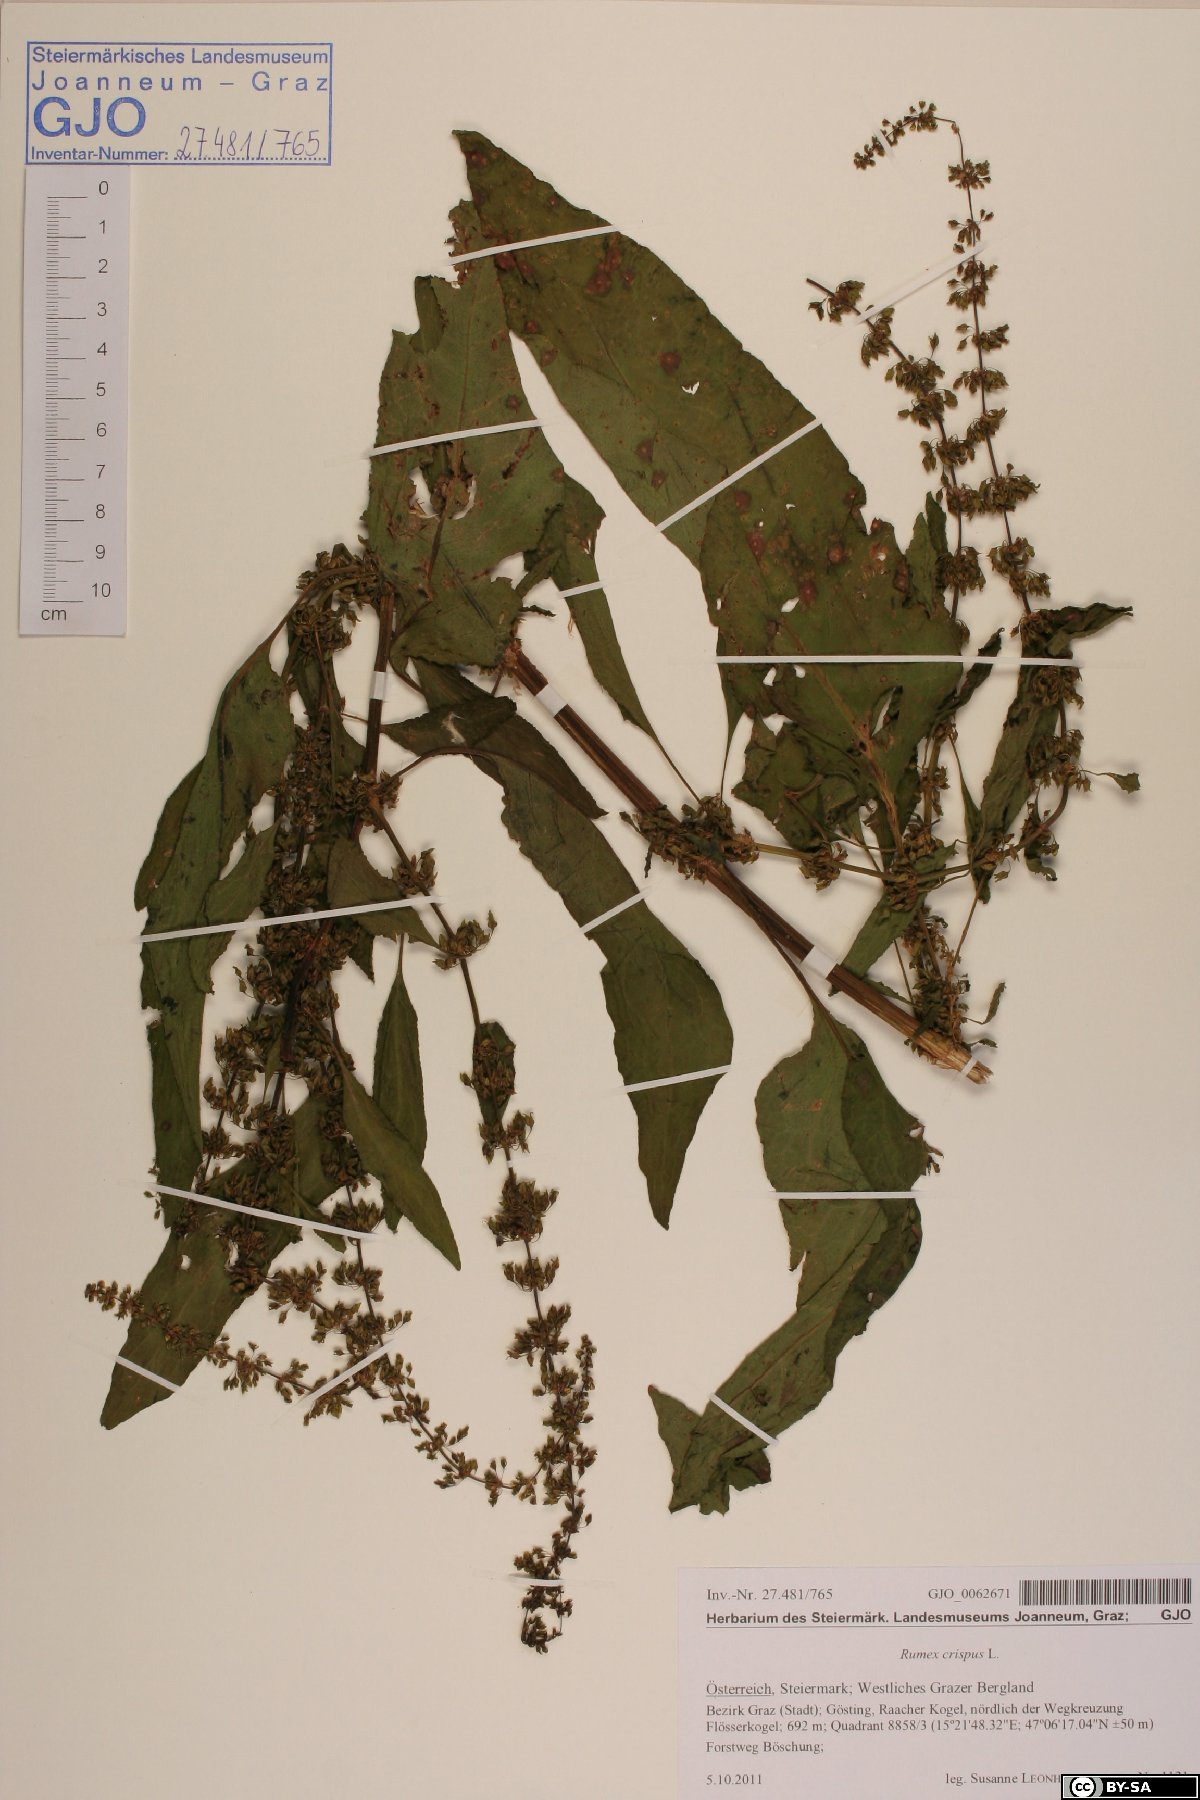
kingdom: Plantae
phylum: Tracheophyta
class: Magnoliopsida
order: Caryophyllales
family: Polygonaceae
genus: Rumex
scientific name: Rumex crispus
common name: Curled dock
